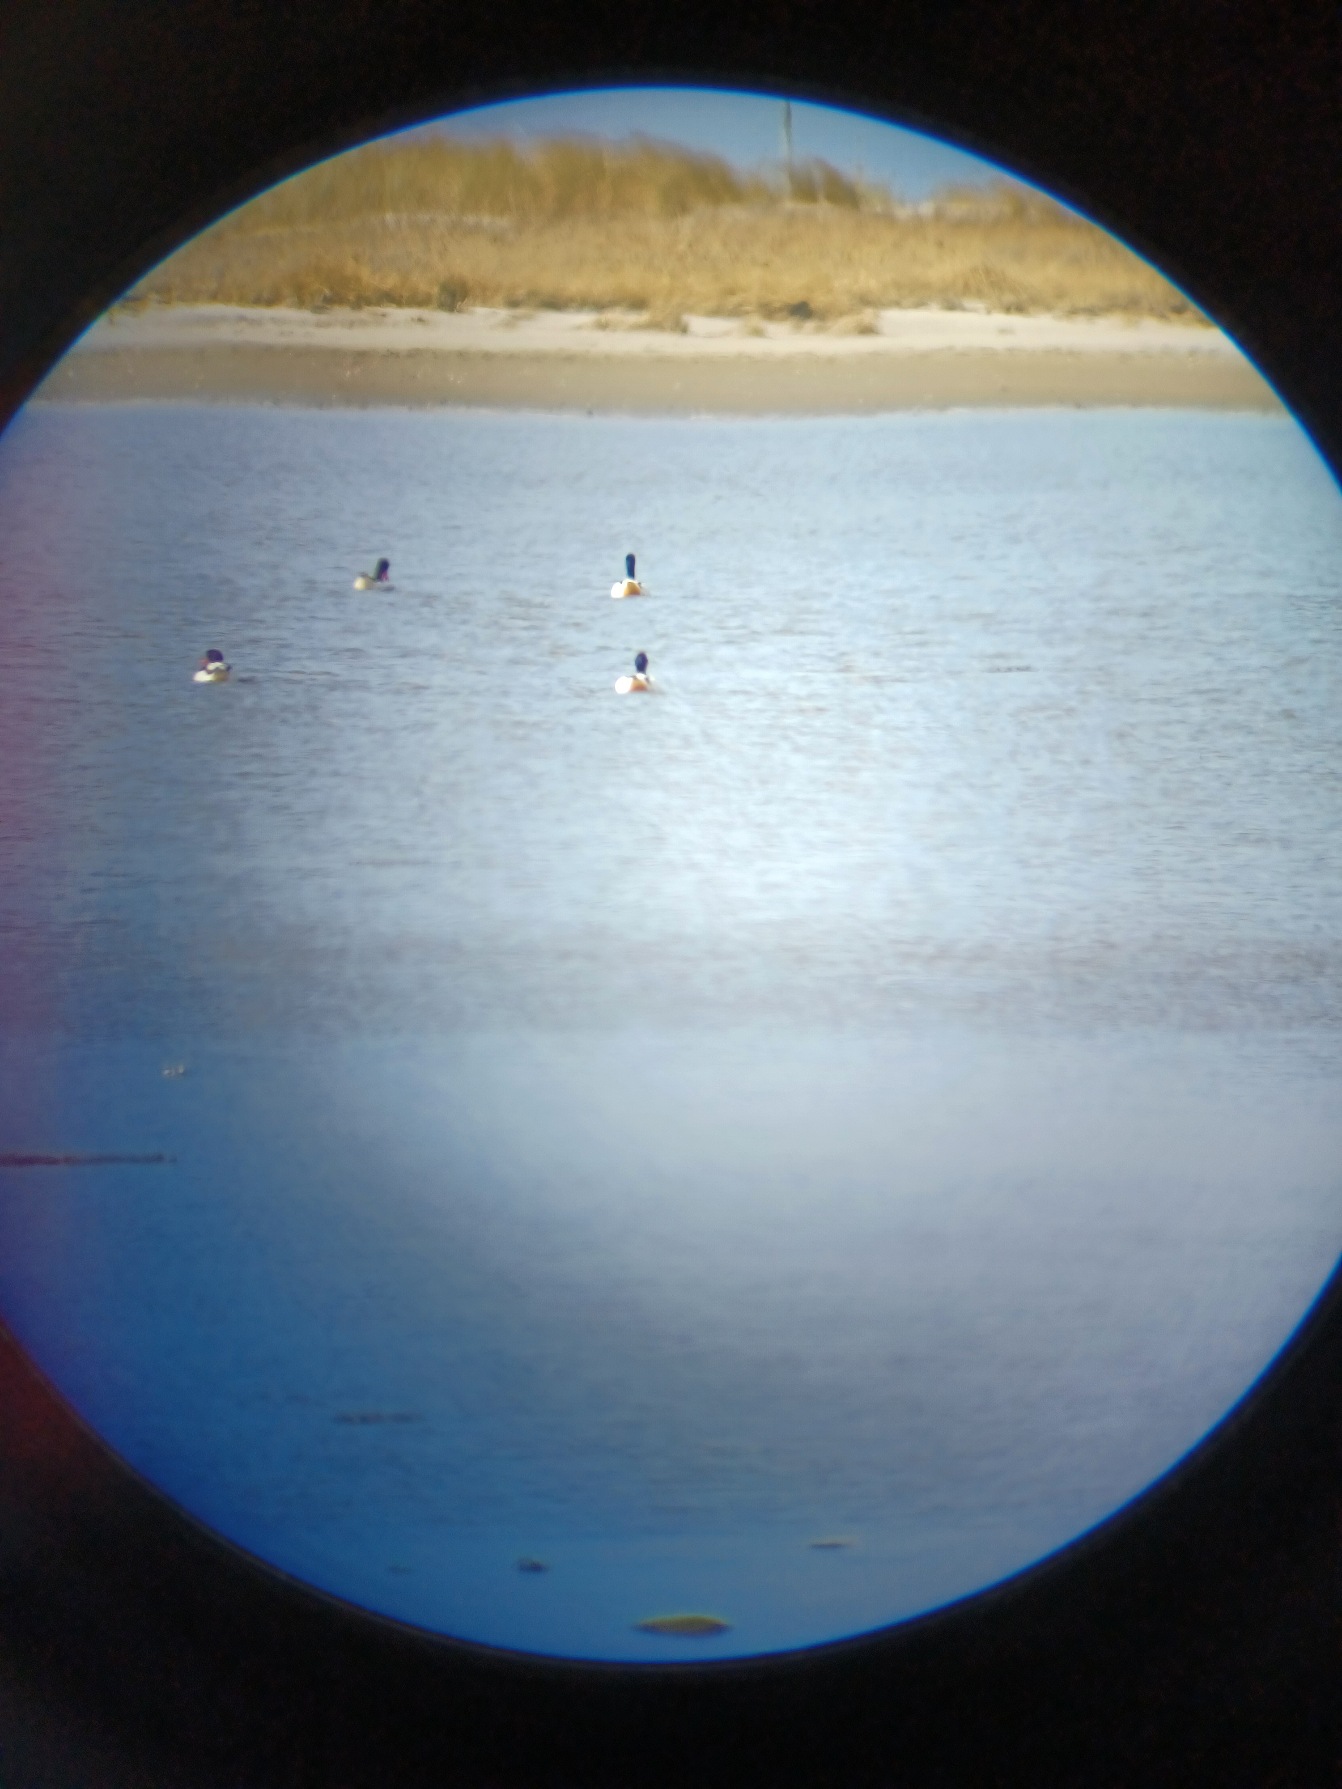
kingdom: Animalia
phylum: Chordata
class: Aves
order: Anseriformes
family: Anatidae
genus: Tadorna
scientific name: Tadorna tadorna
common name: Gravand
